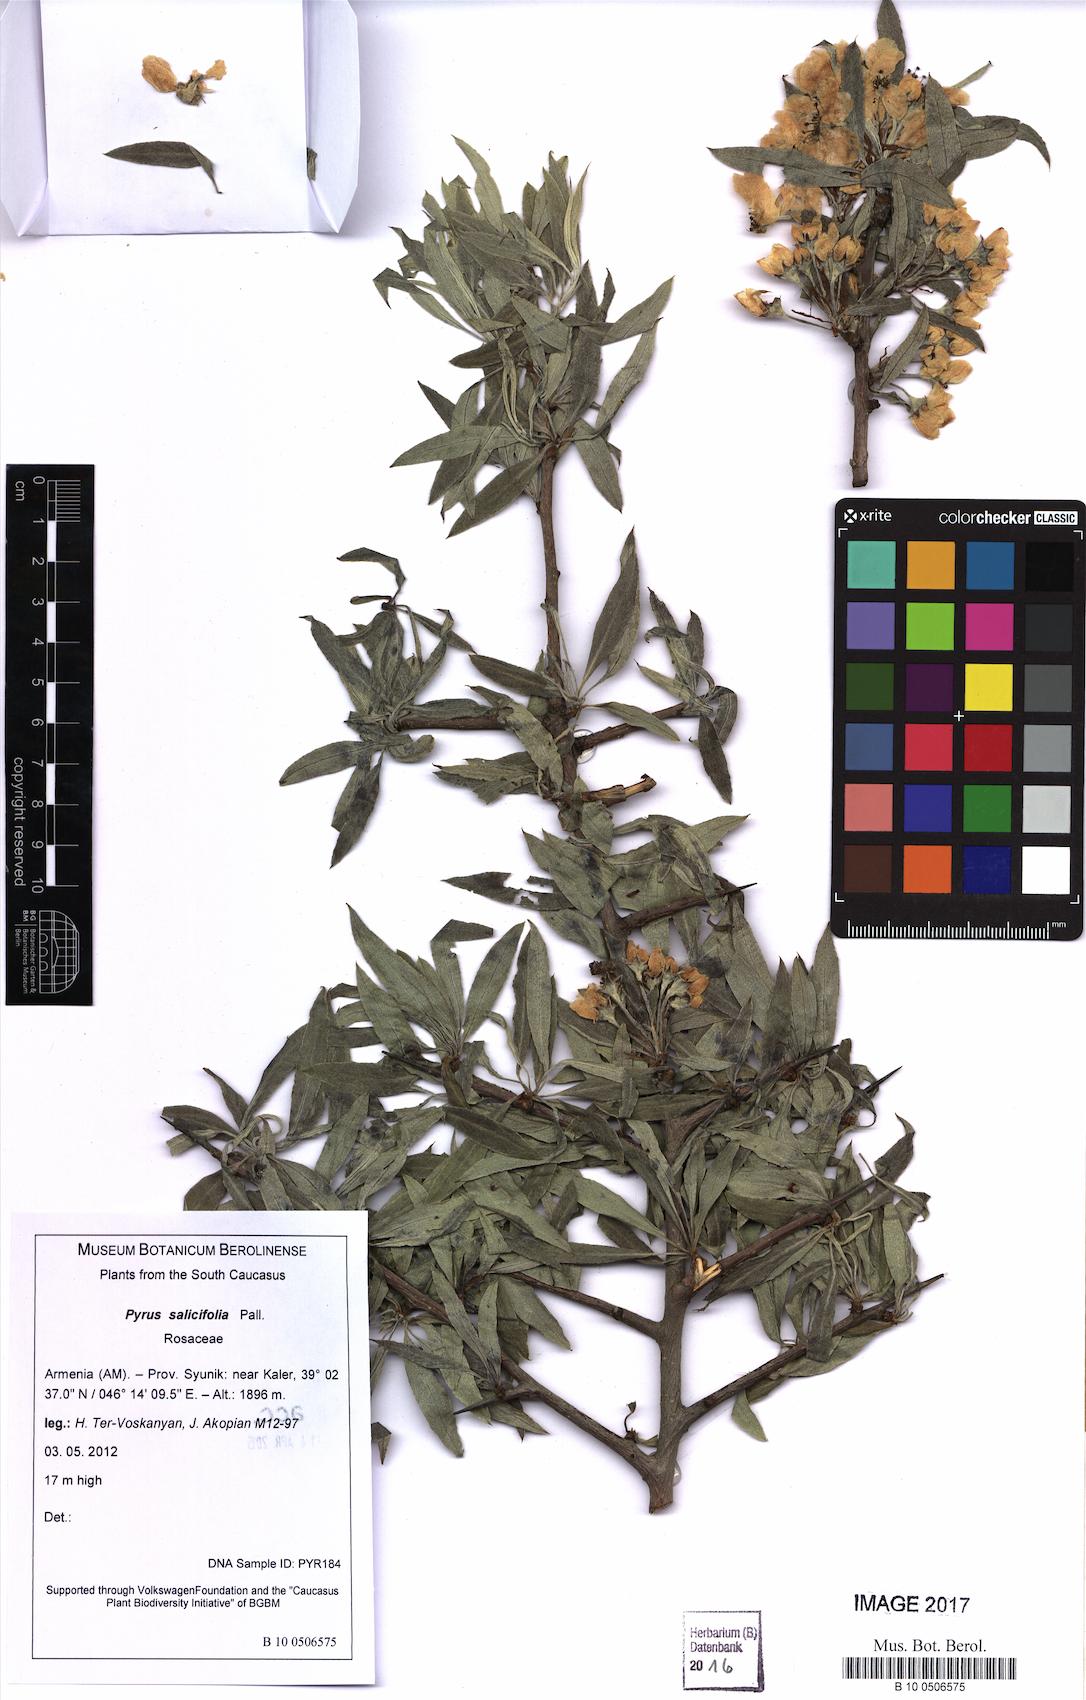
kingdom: Plantae
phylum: Tracheophyta
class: Magnoliopsida
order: Rosales
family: Rosaceae
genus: Pyrus
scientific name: Pyrus salicifolia
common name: Willow-leaved pear
